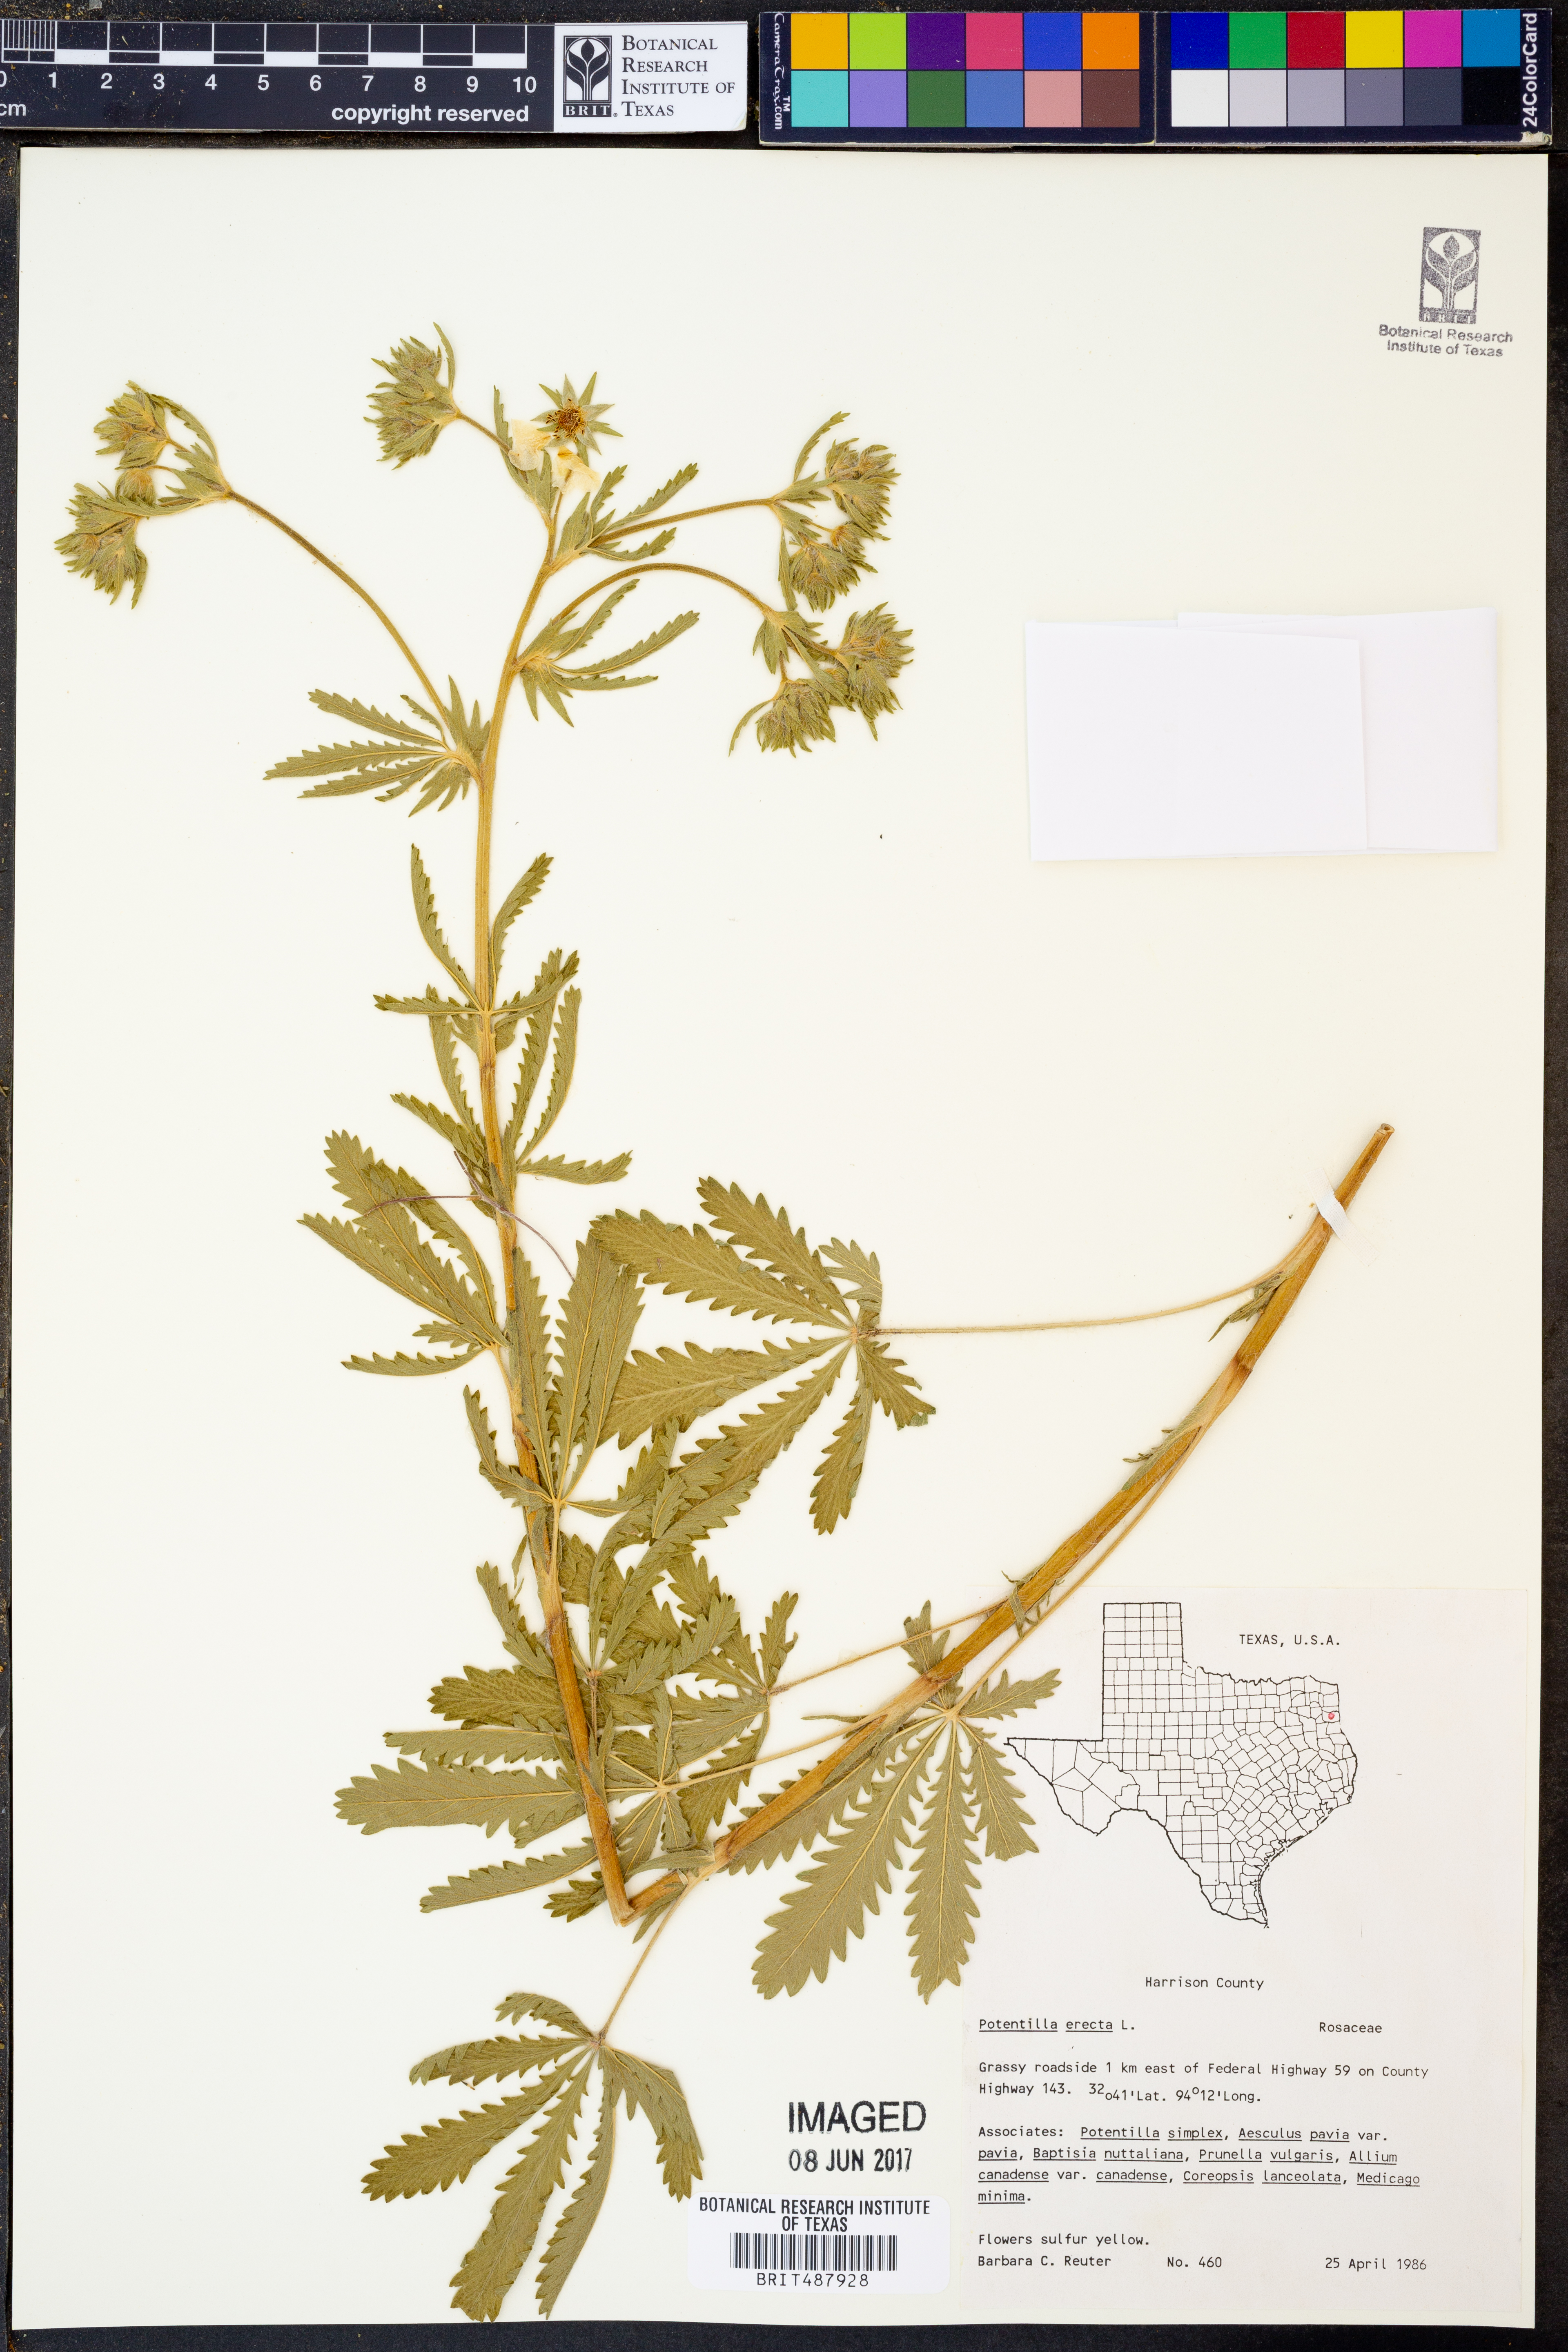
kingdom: Plantae
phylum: Tracheophyta
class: Magnoliopsida
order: Rosales
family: Rosaceae
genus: Potentilla
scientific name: Potentilla erecta
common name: Tormentil
